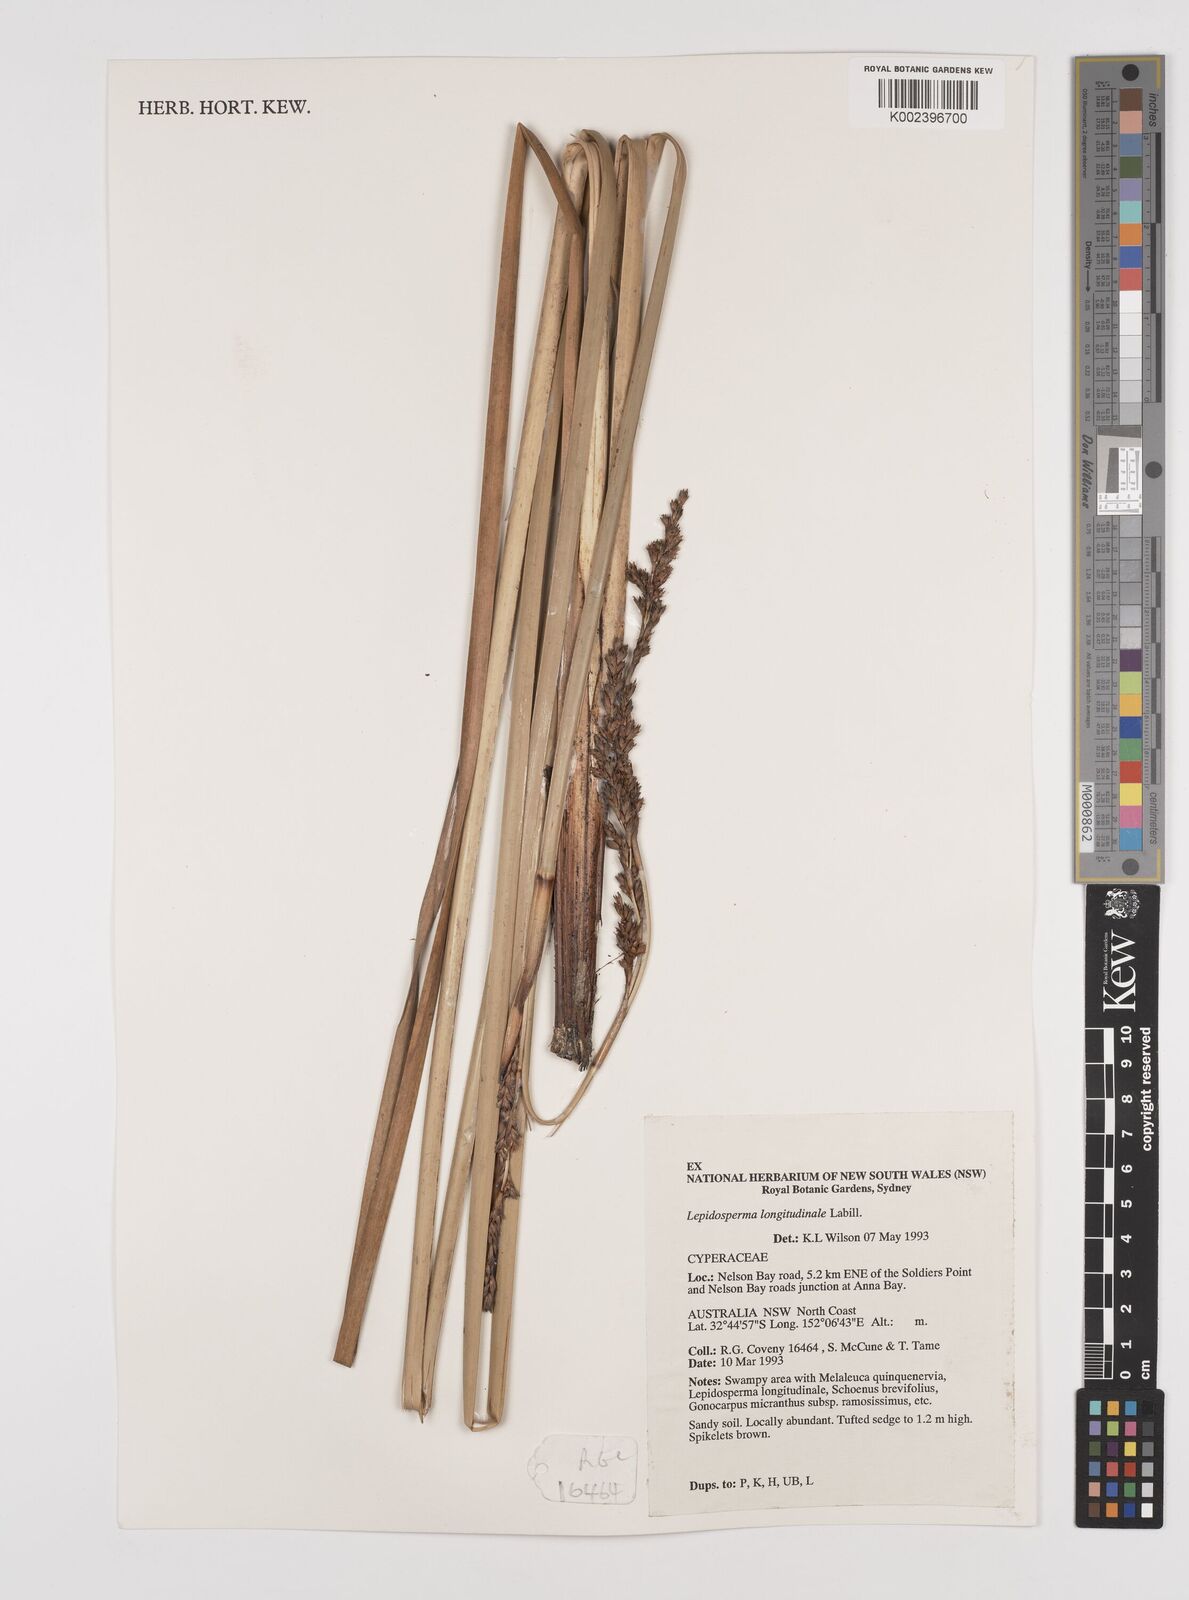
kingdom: Plantae
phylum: Tracheophyta
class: Liliopsida
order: Poales
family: Cyperaceae
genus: Lepidosperma
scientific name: Lepidosperma longitudinale
